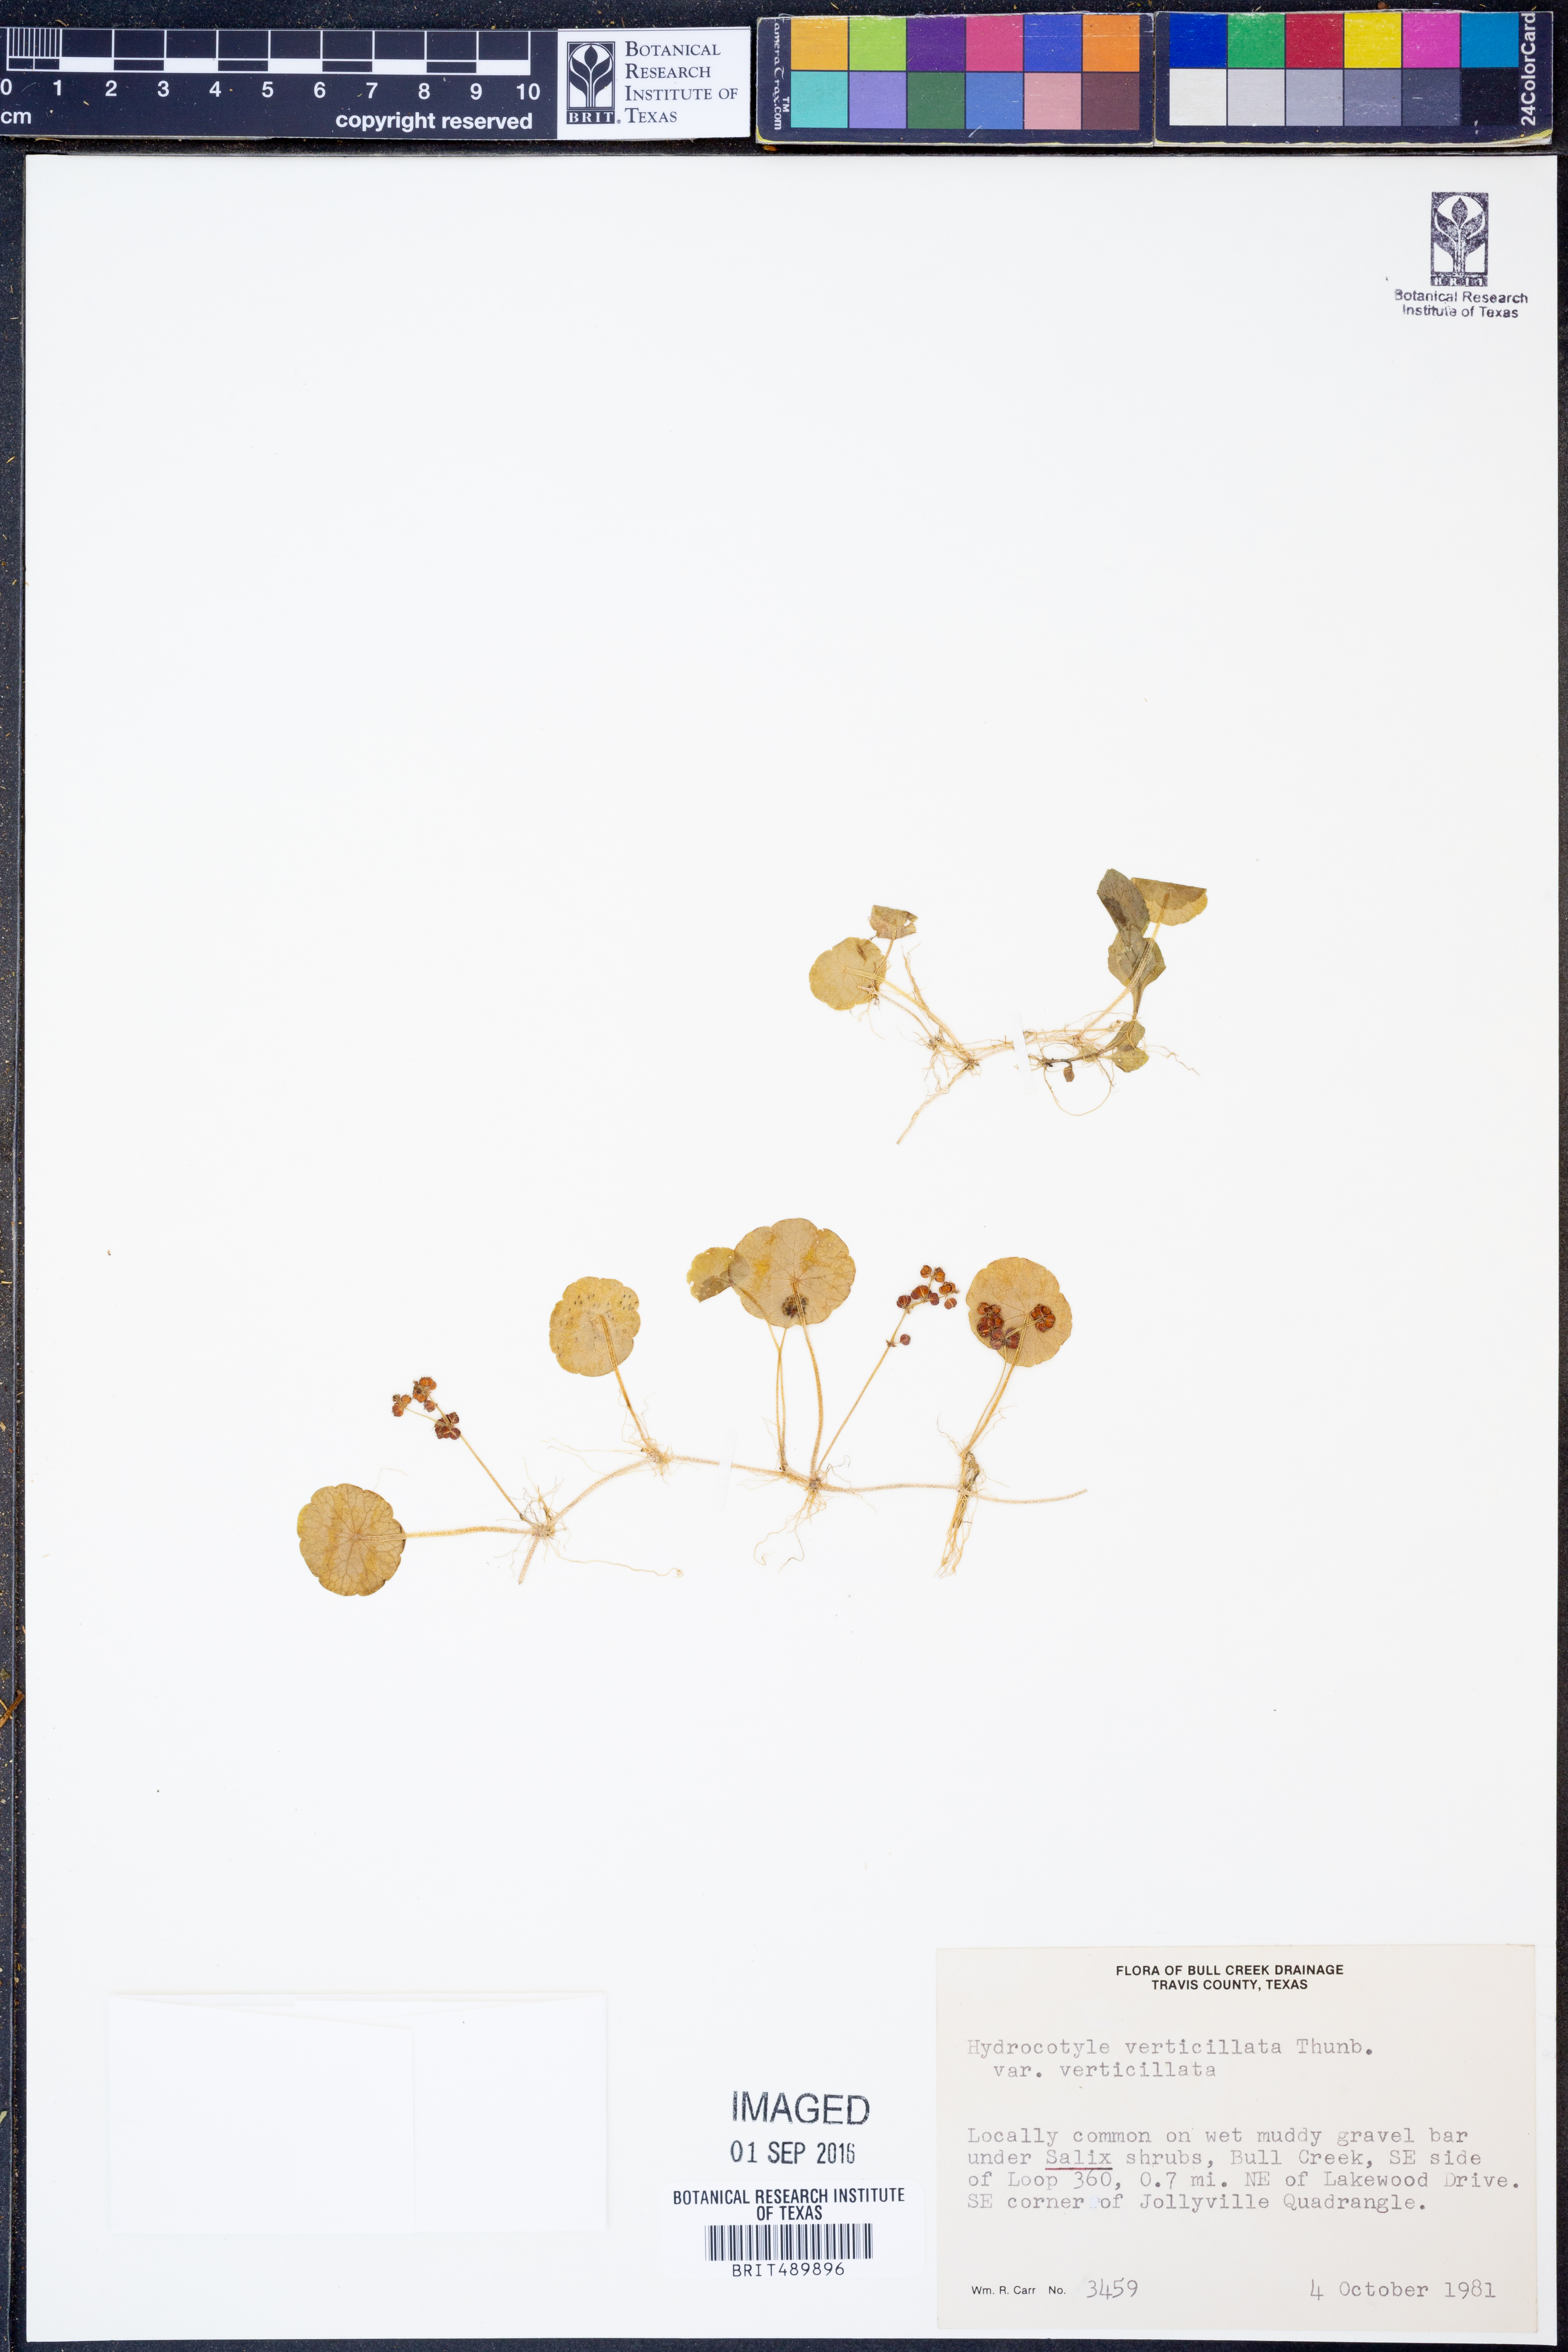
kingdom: Plantae
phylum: Tracheophyta
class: Magnoliopsida
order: Apiales
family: Araliaceae
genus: Hydrocotyle
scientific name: Hydrocotyle verticillata
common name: Whorled marshpennywort
